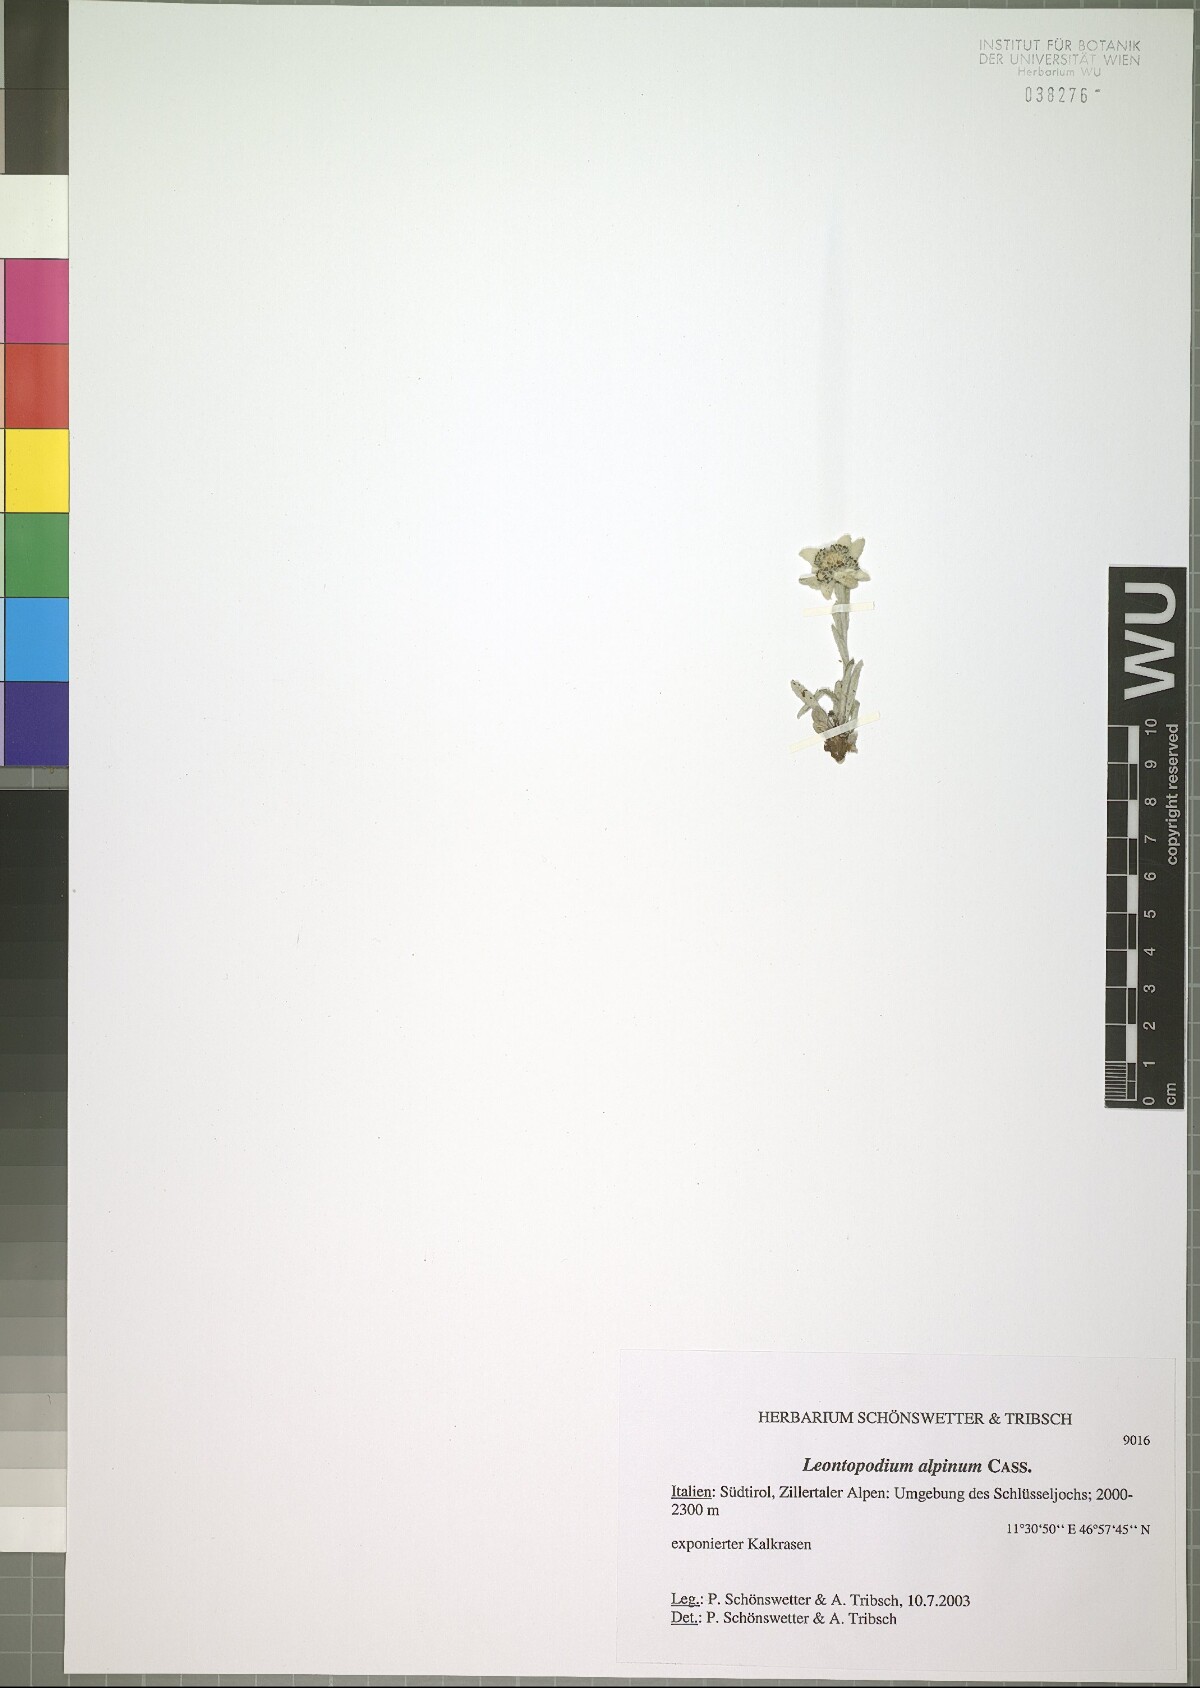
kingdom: Plantae
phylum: Tracheophyta
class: Magnoliopsida
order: Asterales
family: Asteraceae
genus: Leontopodium
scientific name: Leontopodium nivale
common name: Edelweiss
